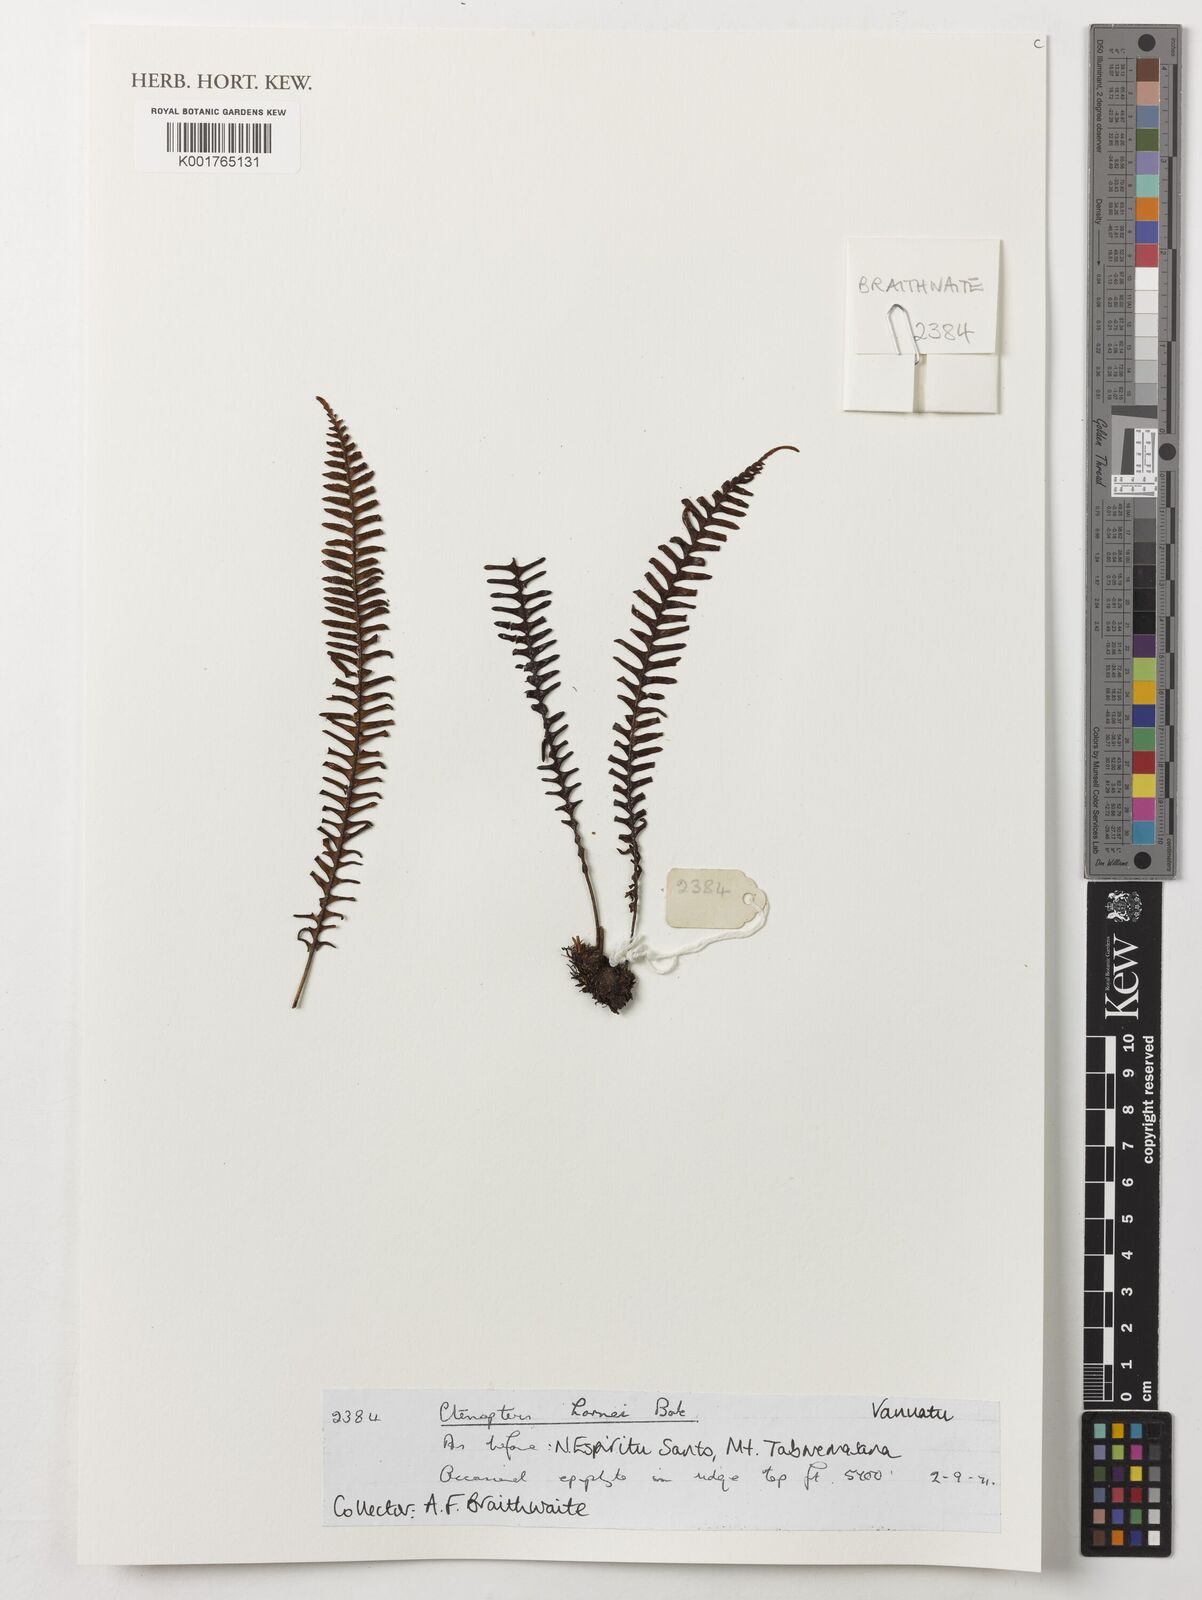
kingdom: Plantae
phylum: Tracheophyta
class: Polypodiopsida
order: Polypodiales
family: Polypodiaceae
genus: Prosaptia
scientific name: Prosaptia hornei
